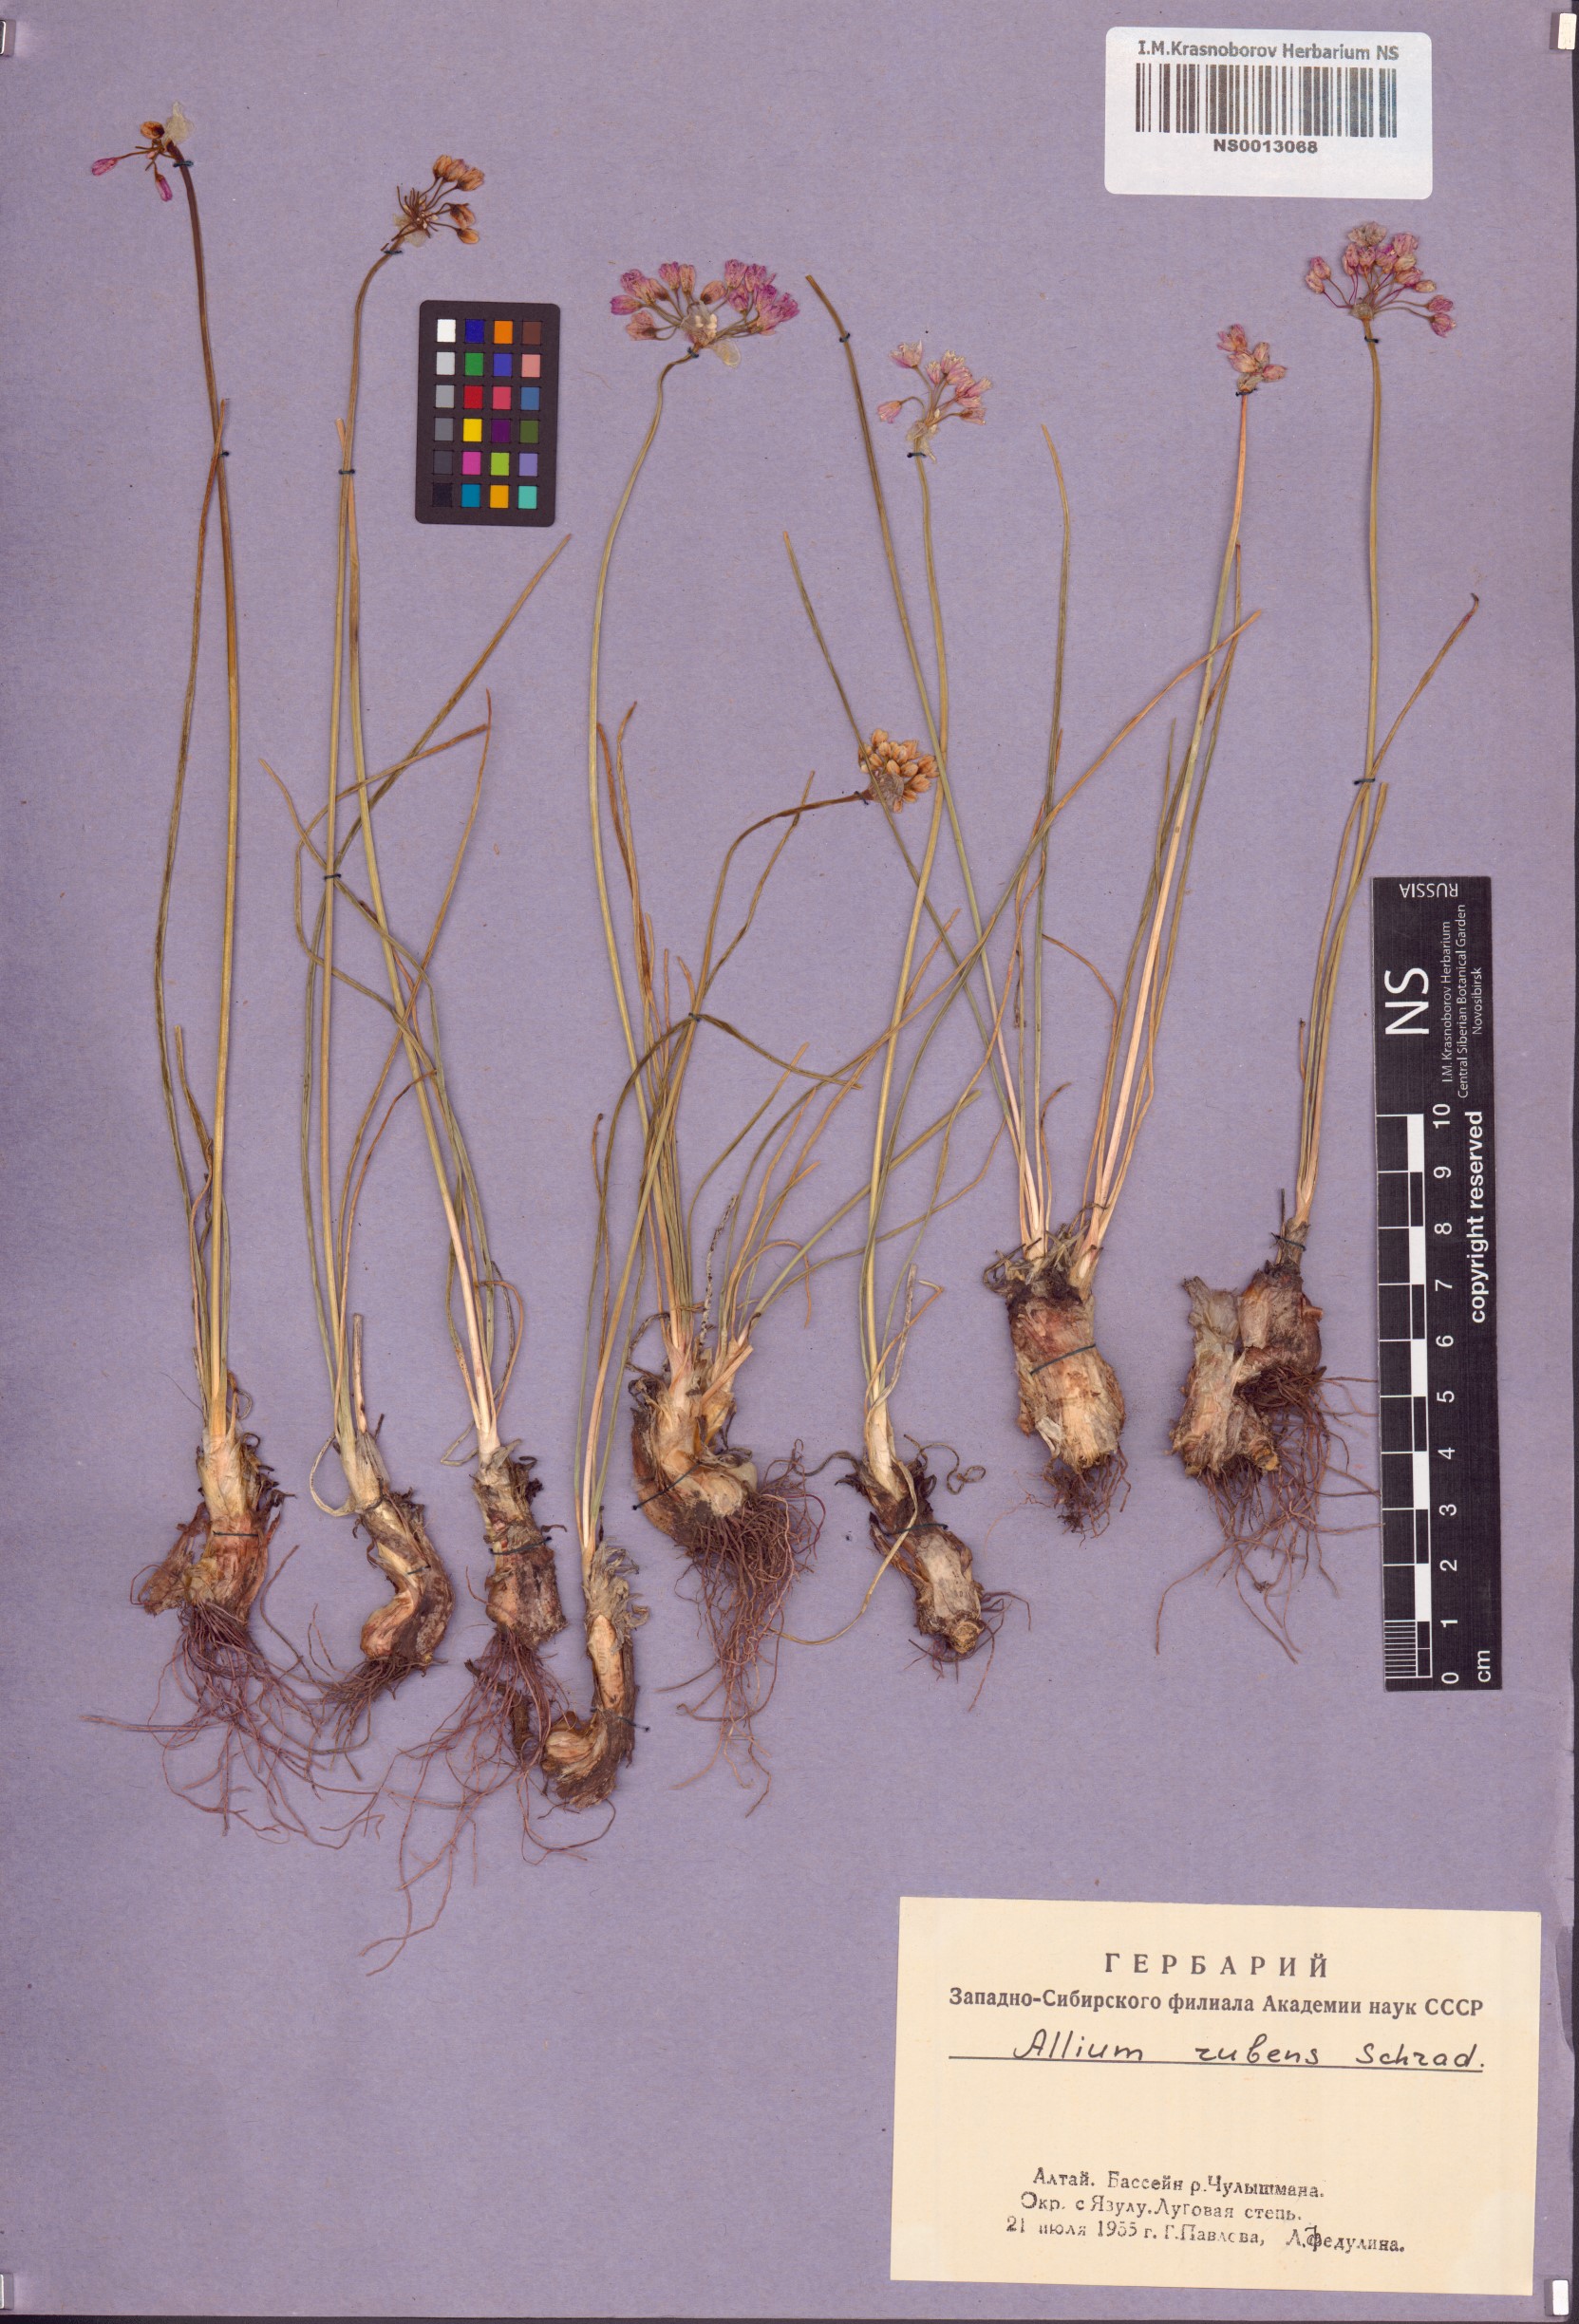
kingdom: Plantae
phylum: Tracheophyta
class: Liliopsida
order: Asparagales
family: Amaryllidaceae
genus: Allium
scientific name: Allium rubens
